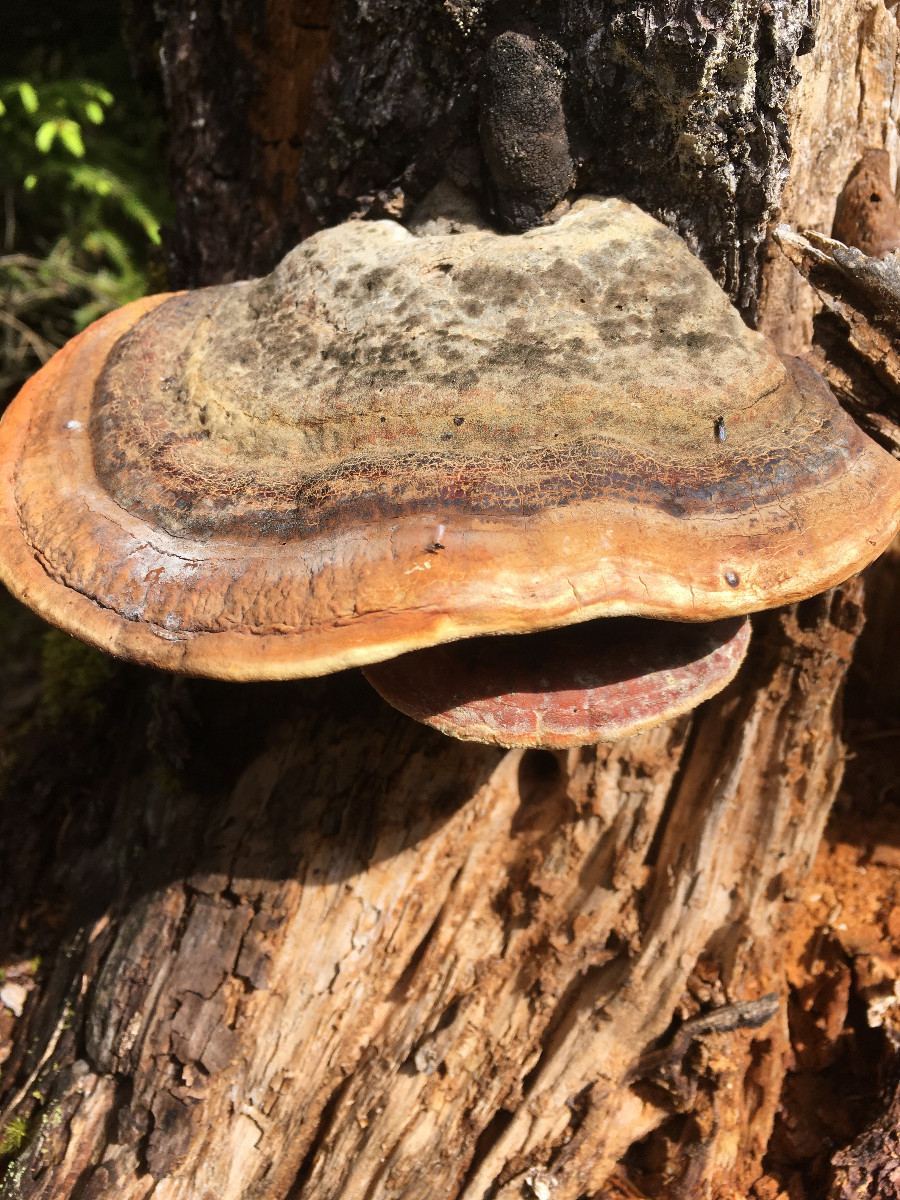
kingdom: Fungi
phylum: Basidiomycota
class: Agaricomycetes
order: Polyporales
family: Fomitopsidaceae
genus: Fomitopsis
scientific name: Fomitopsis pinicola
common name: randbæltet hovporesvamp
